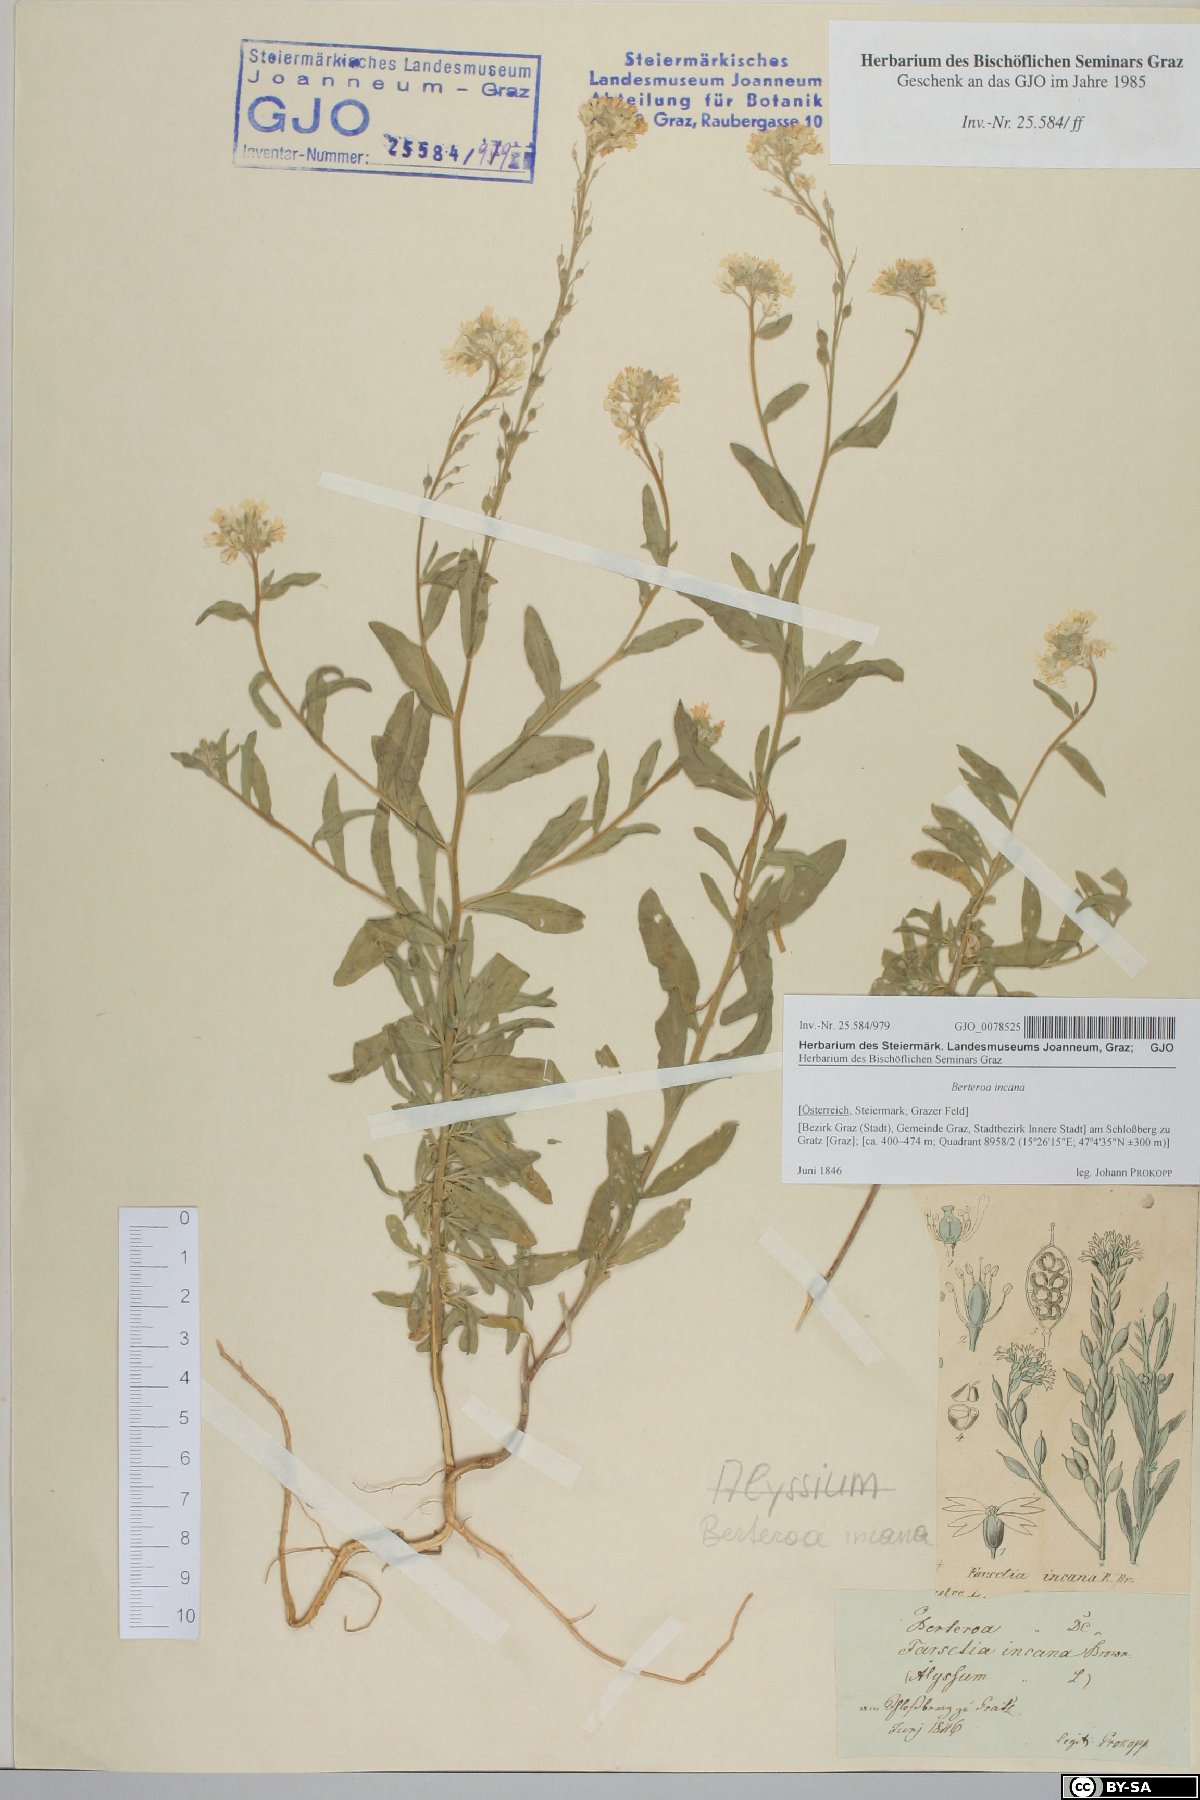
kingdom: Plantae
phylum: Tracheophyta
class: Magnoliopsida
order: Brassicales
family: Brassicaceae
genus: Berteroa
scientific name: Berteroa incana
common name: Hoary alison
